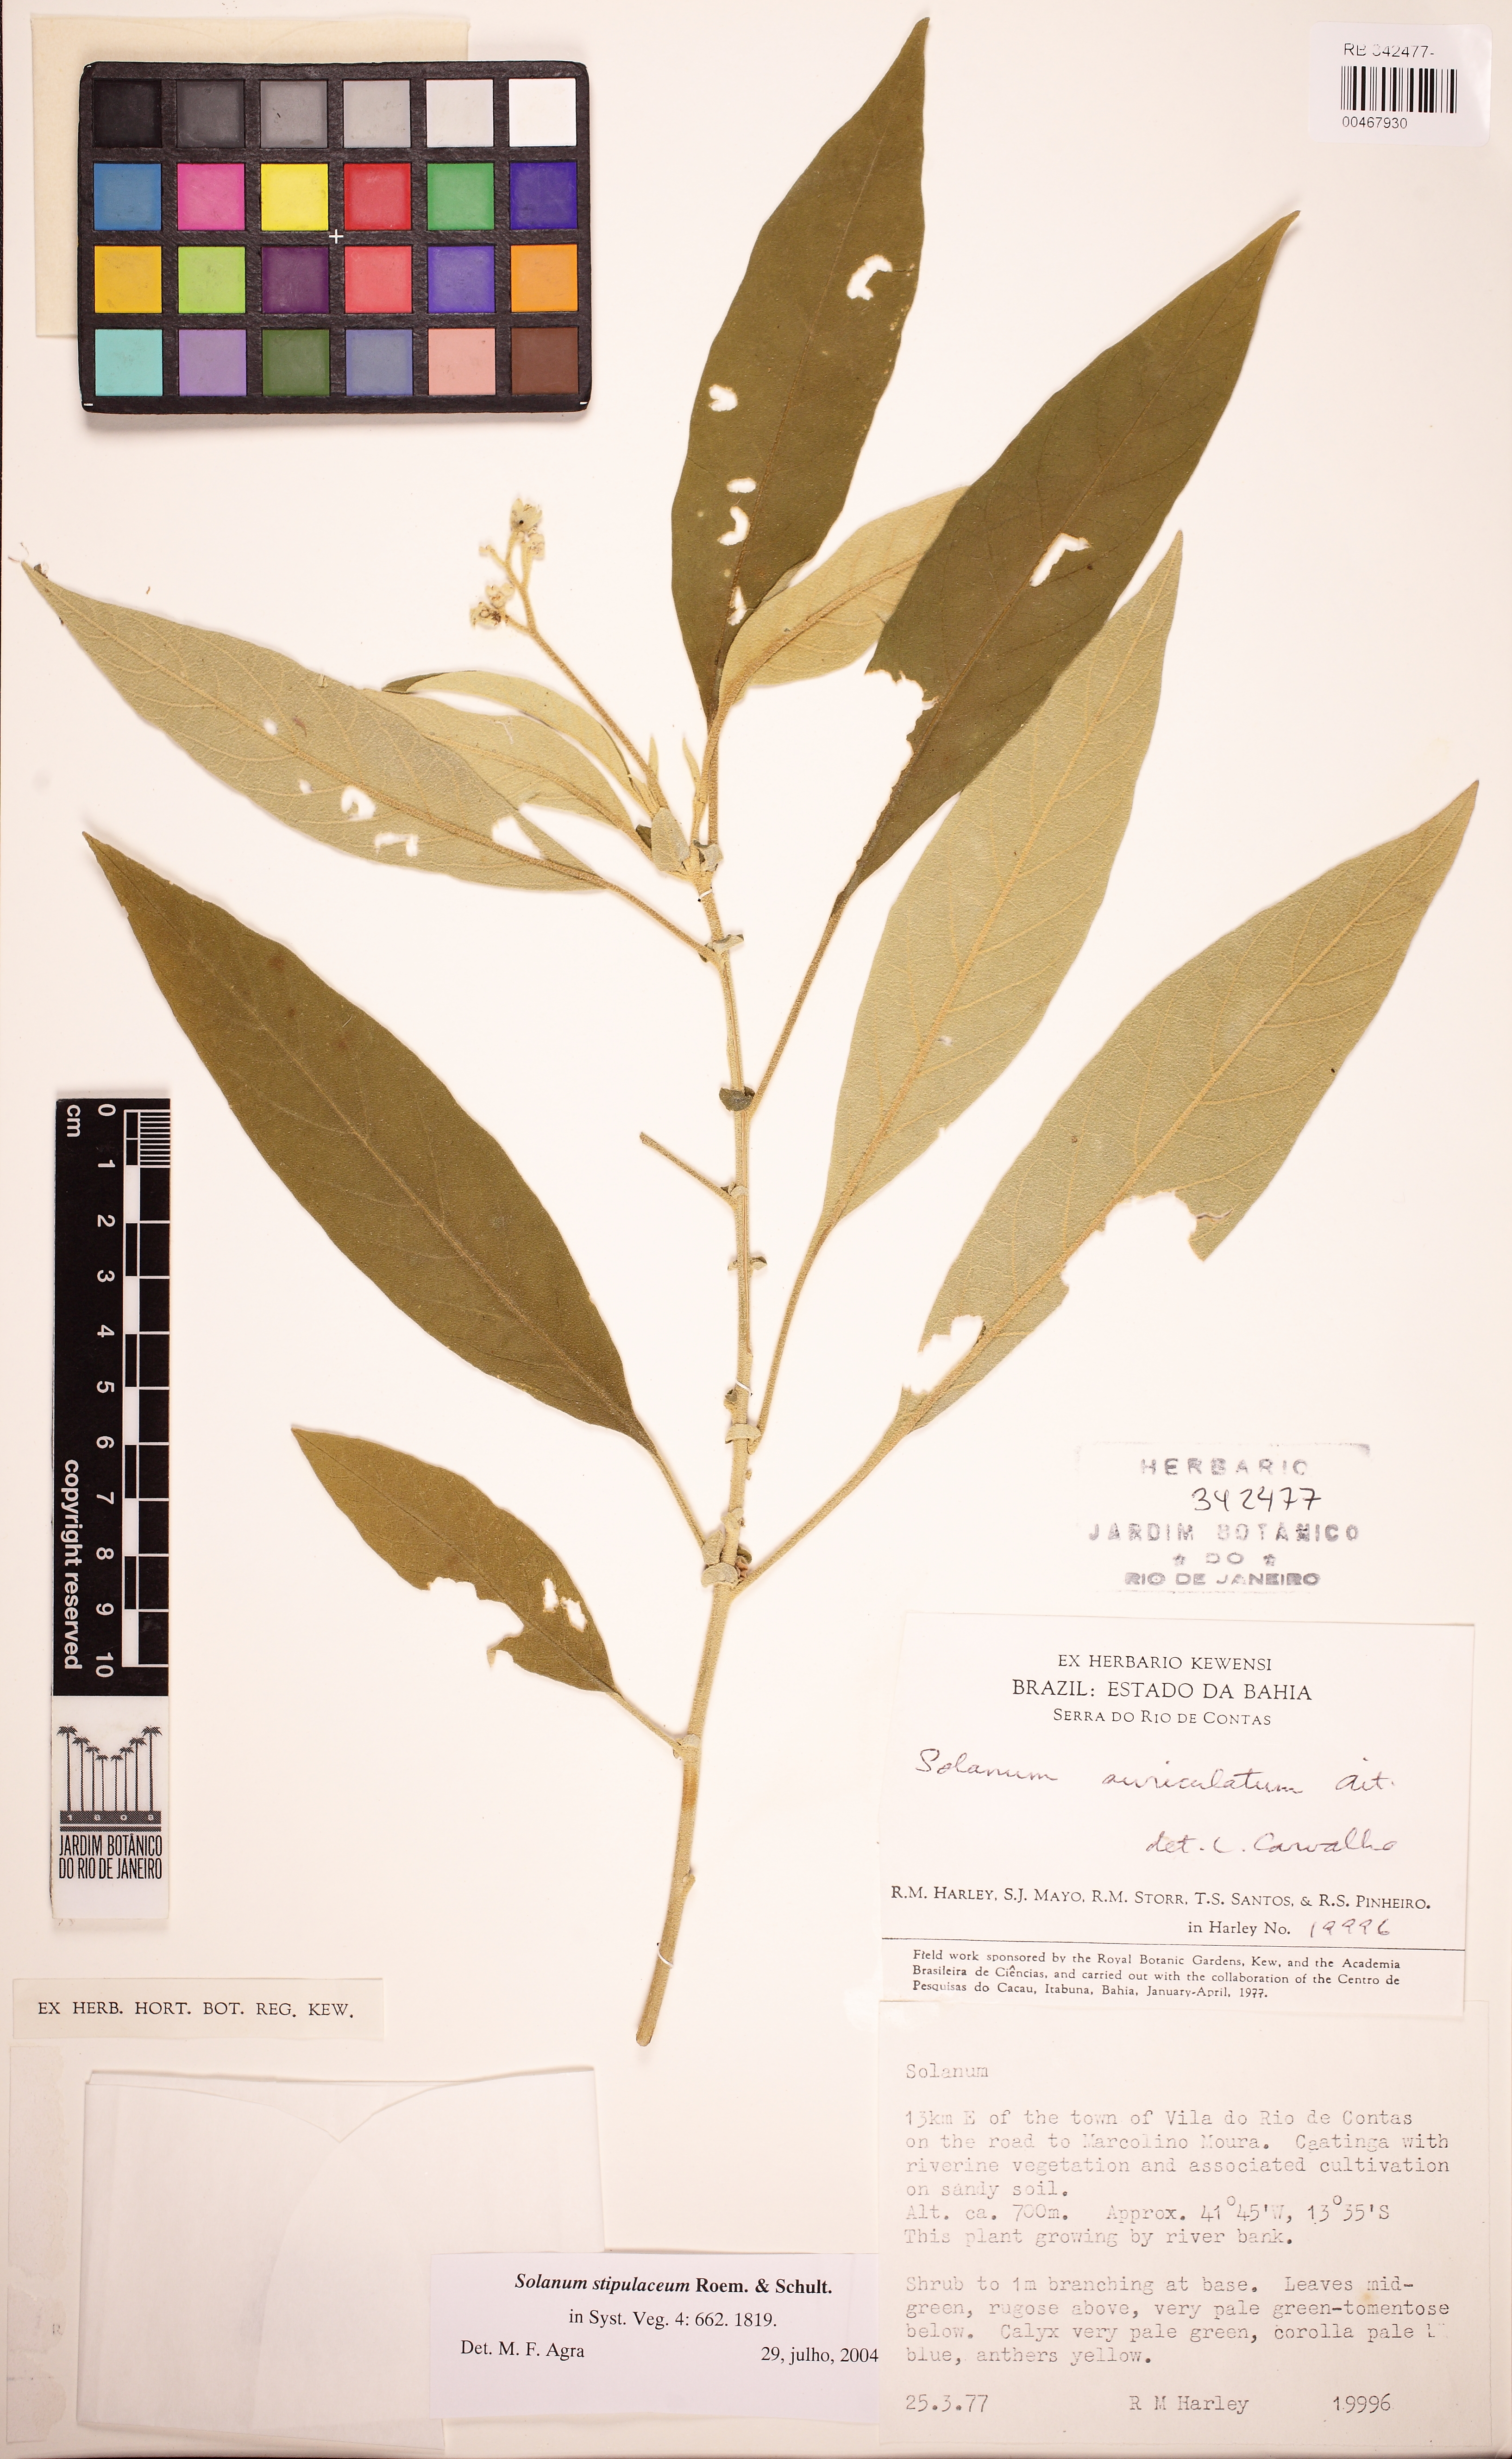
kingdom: Plantae
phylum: Tracheophyta
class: Magnoliopsida
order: Solanales
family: Solanaceae
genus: Solanum
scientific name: Solanum stipulaceum
